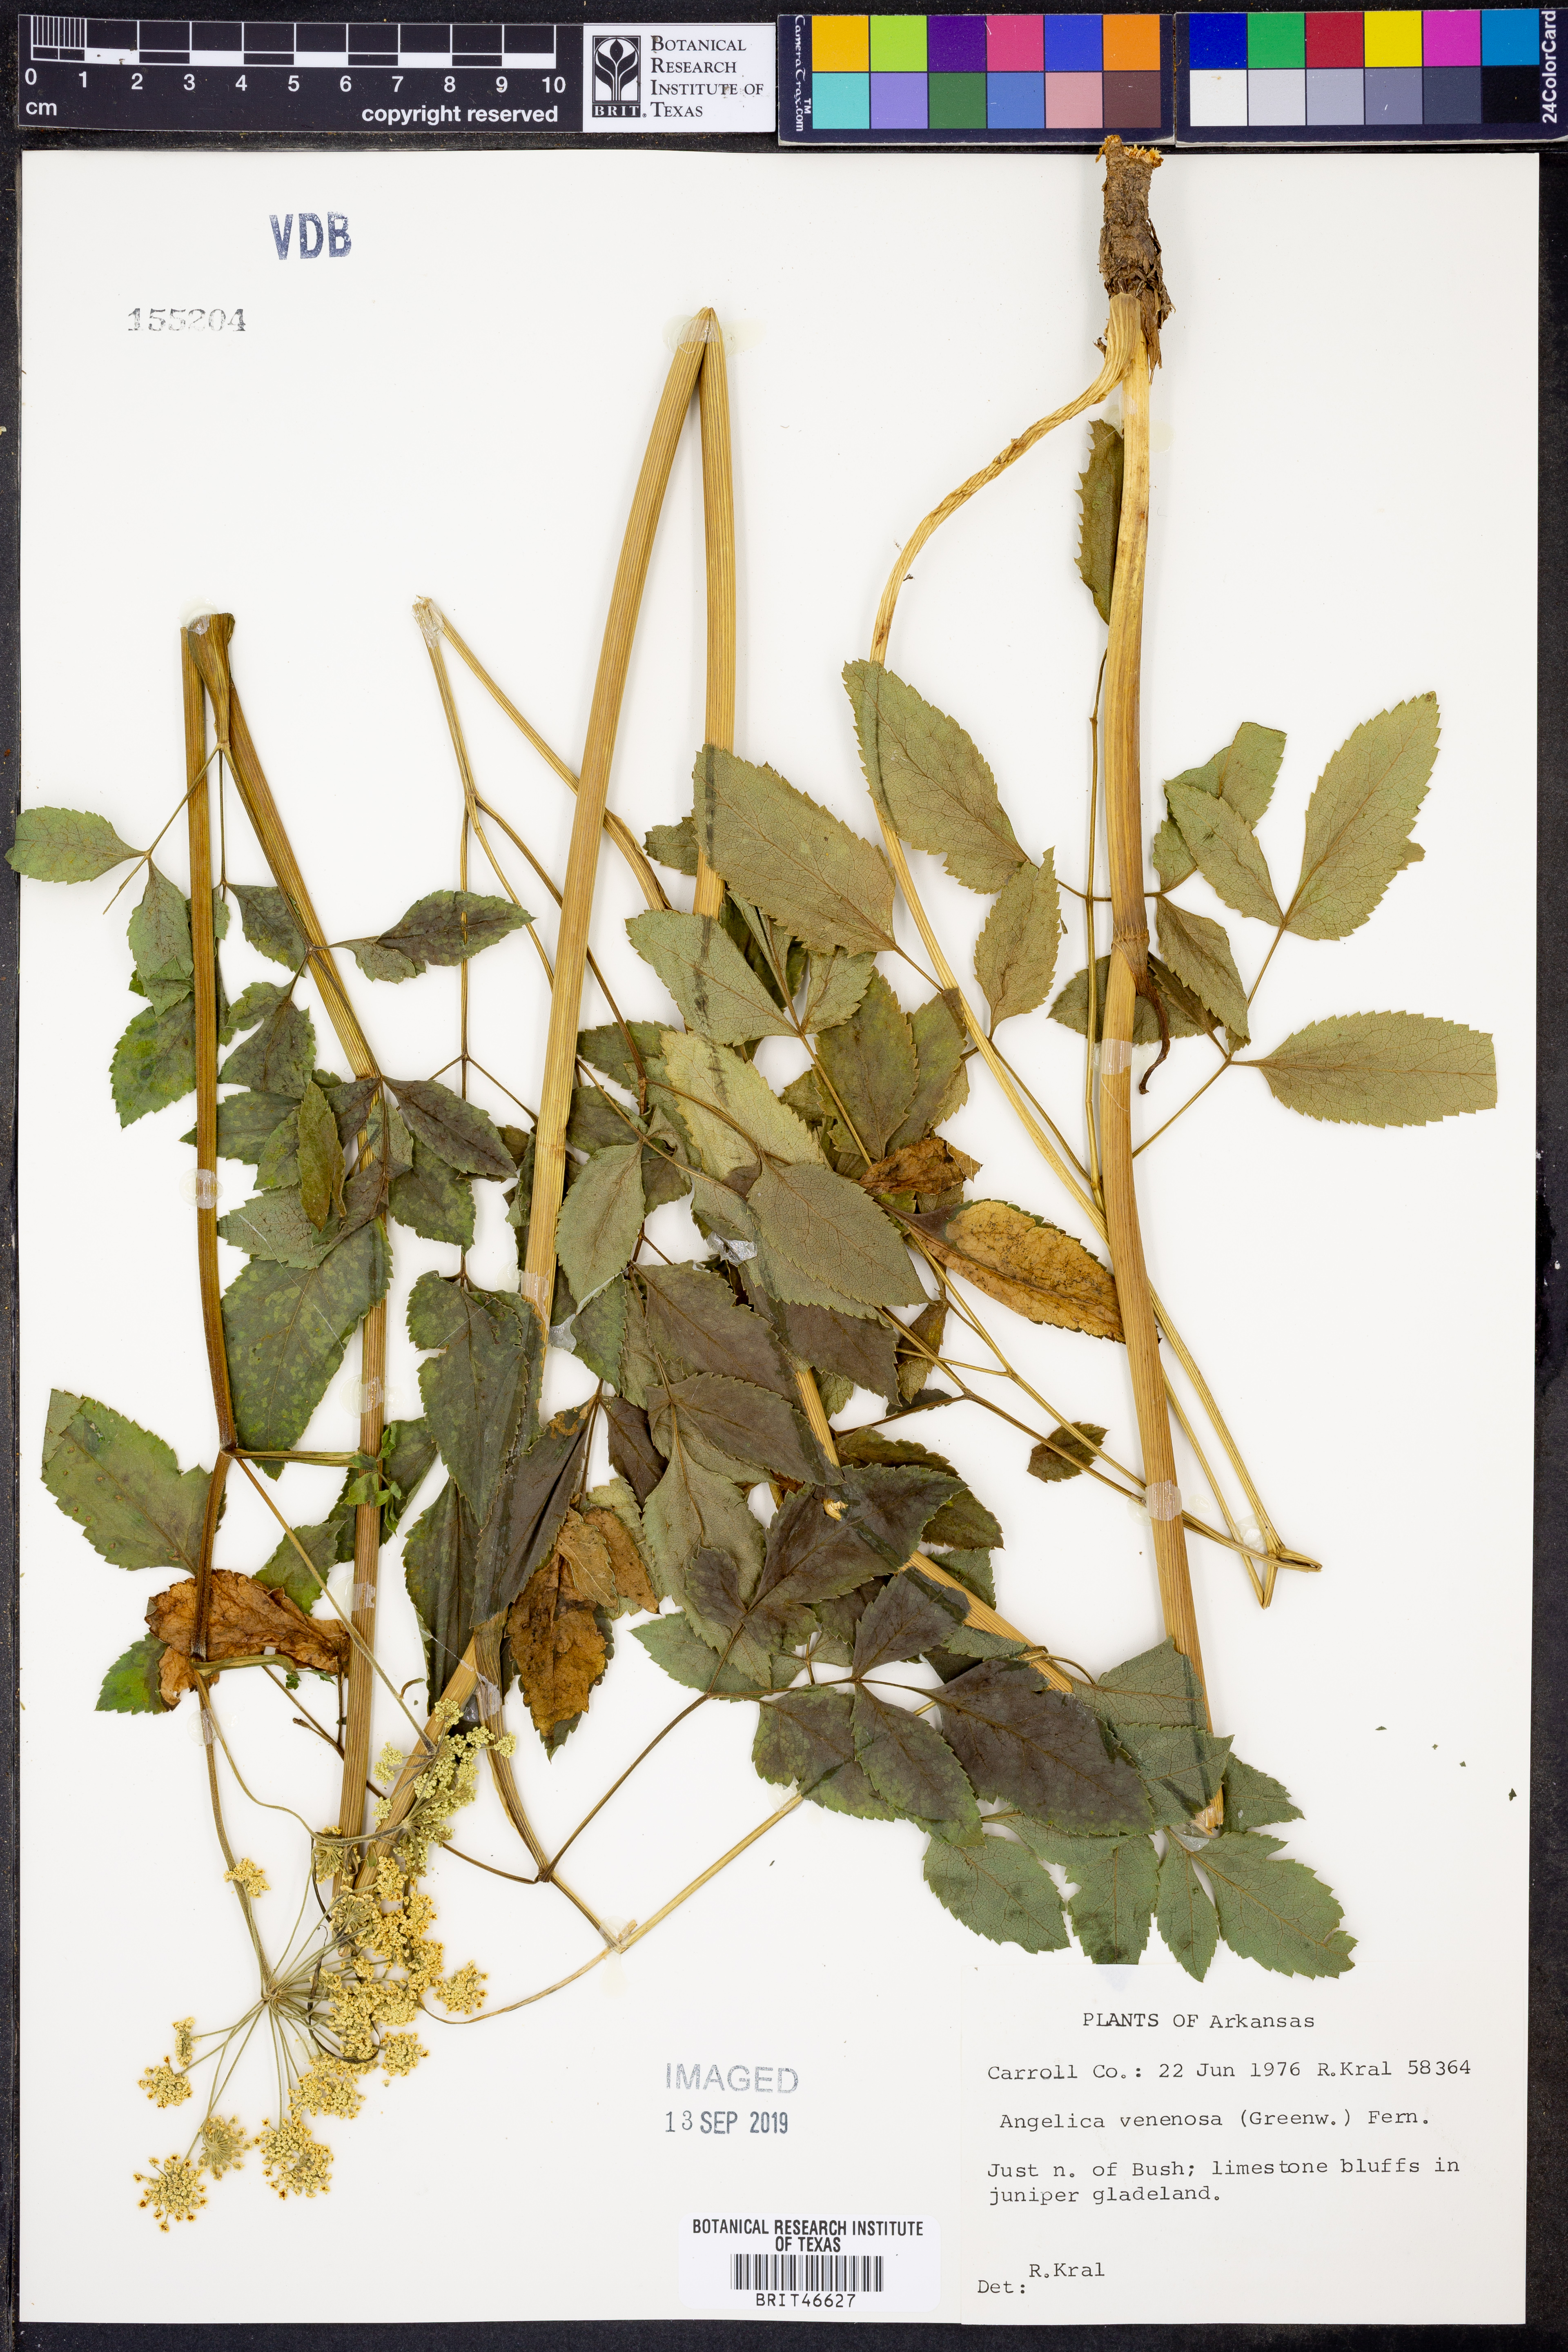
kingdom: Plantae
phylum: Tracheophyta
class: Magnoliopsida
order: Apiales
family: Apiaceae
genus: Angelica
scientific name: Angelica venenosa
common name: Hairy angelica
